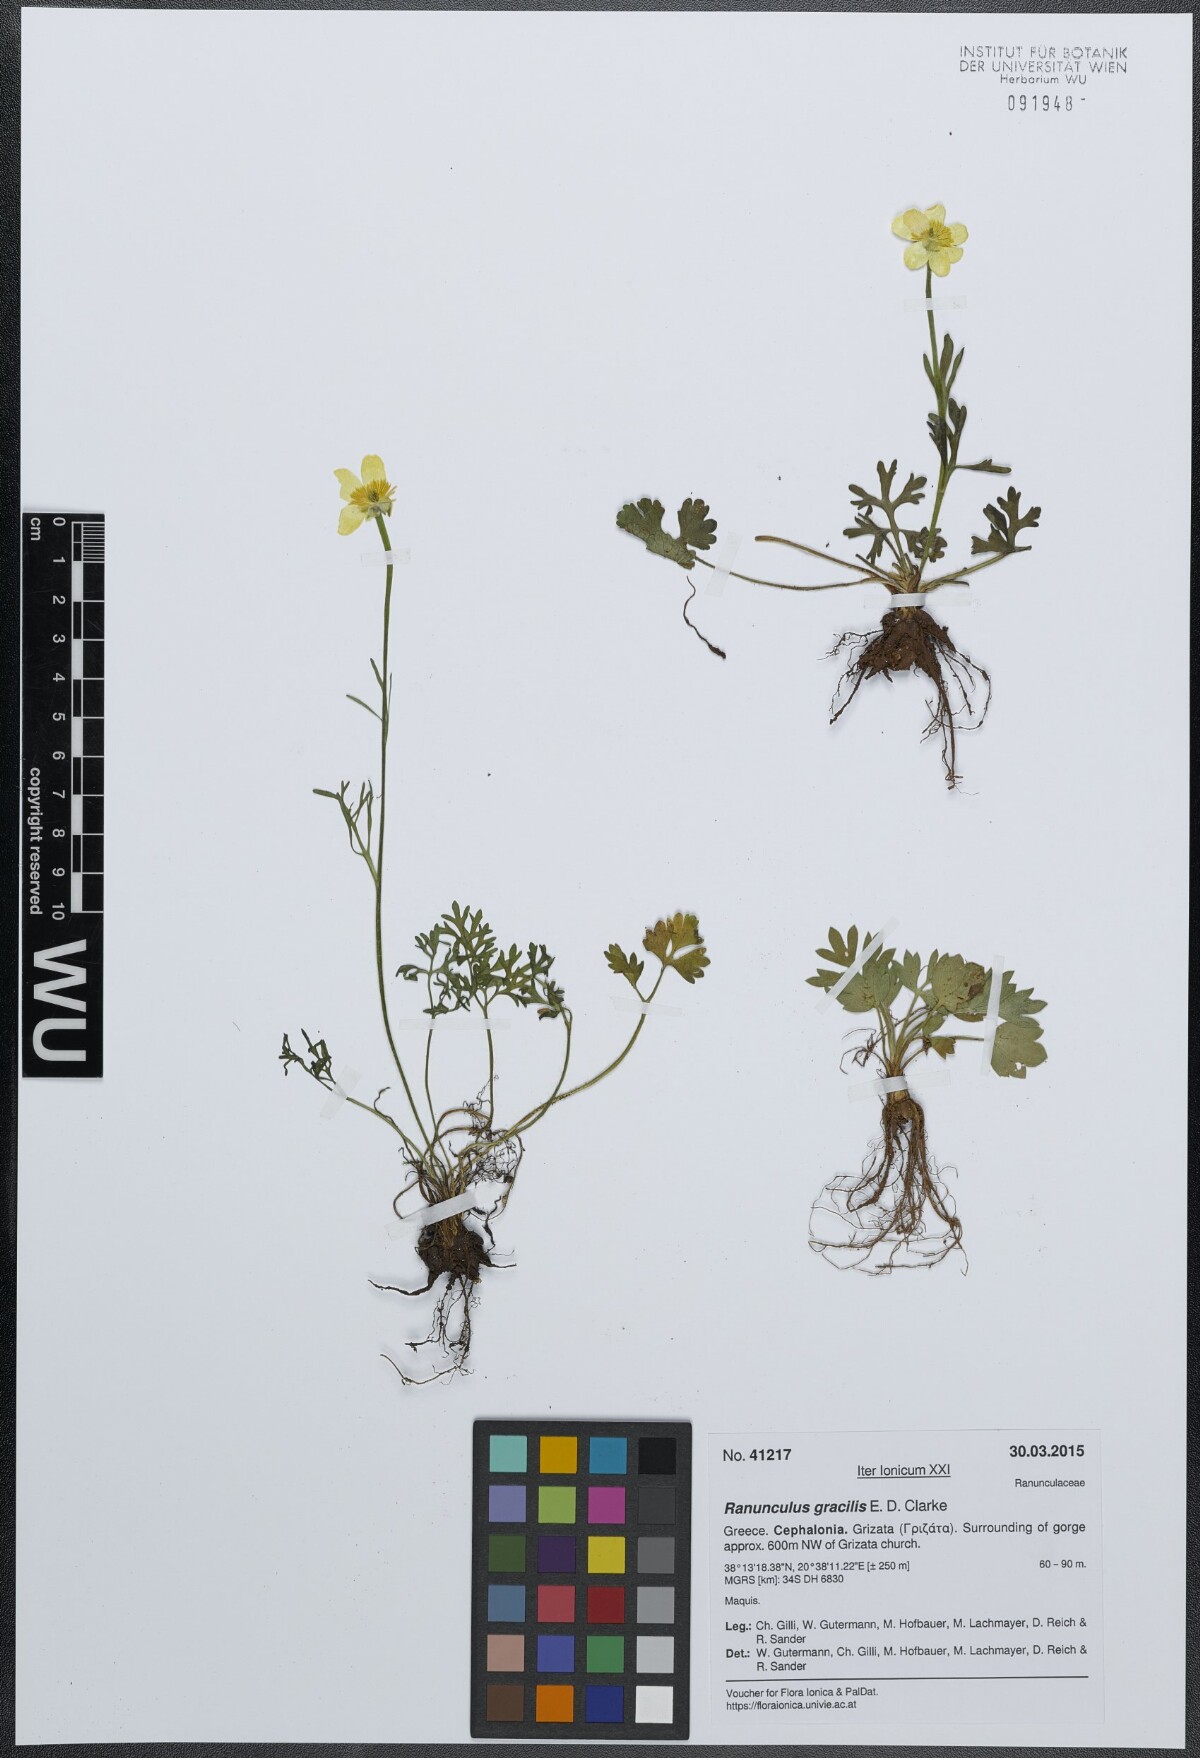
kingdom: Plantae
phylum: Tracheophyta
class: Magnoliopsida
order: Ranunculales
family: Ranunculaceae
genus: Ranunculus
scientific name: Ranunculus gracilis
